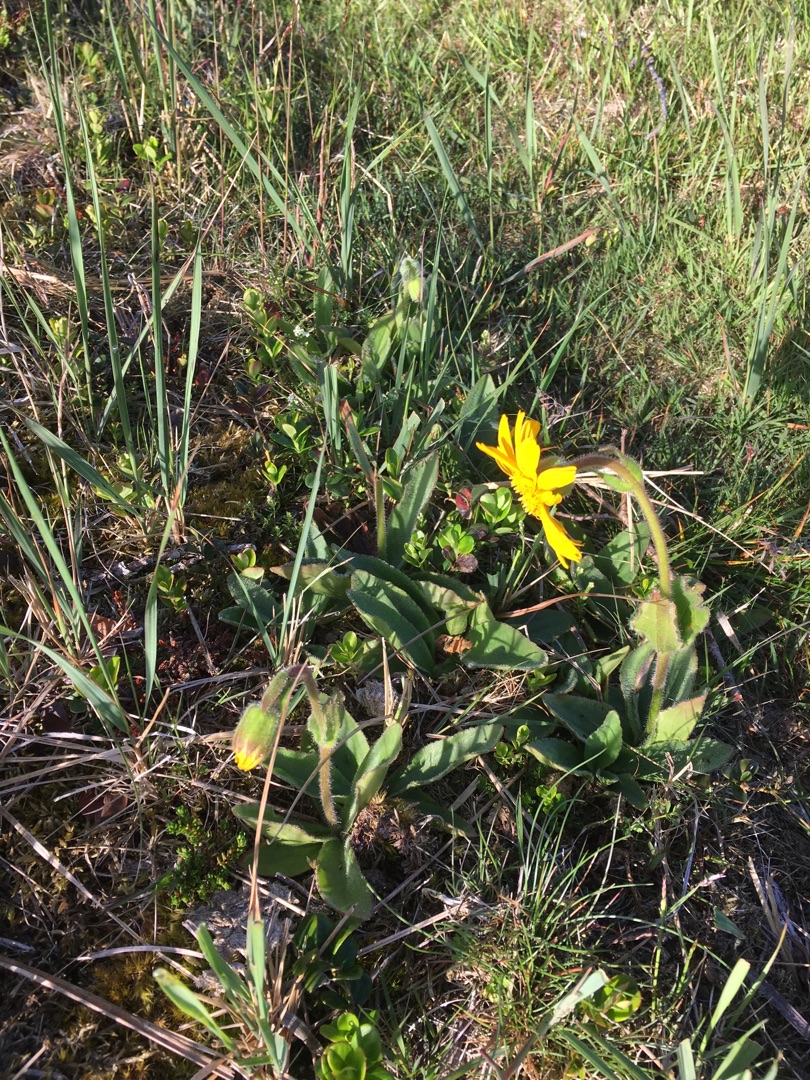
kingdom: Plantae
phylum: Tracheophyta
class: Magnoliopsida
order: Asterales
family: Asteraceae
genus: Arnica
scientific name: Arnica montana
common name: Guldblomme
